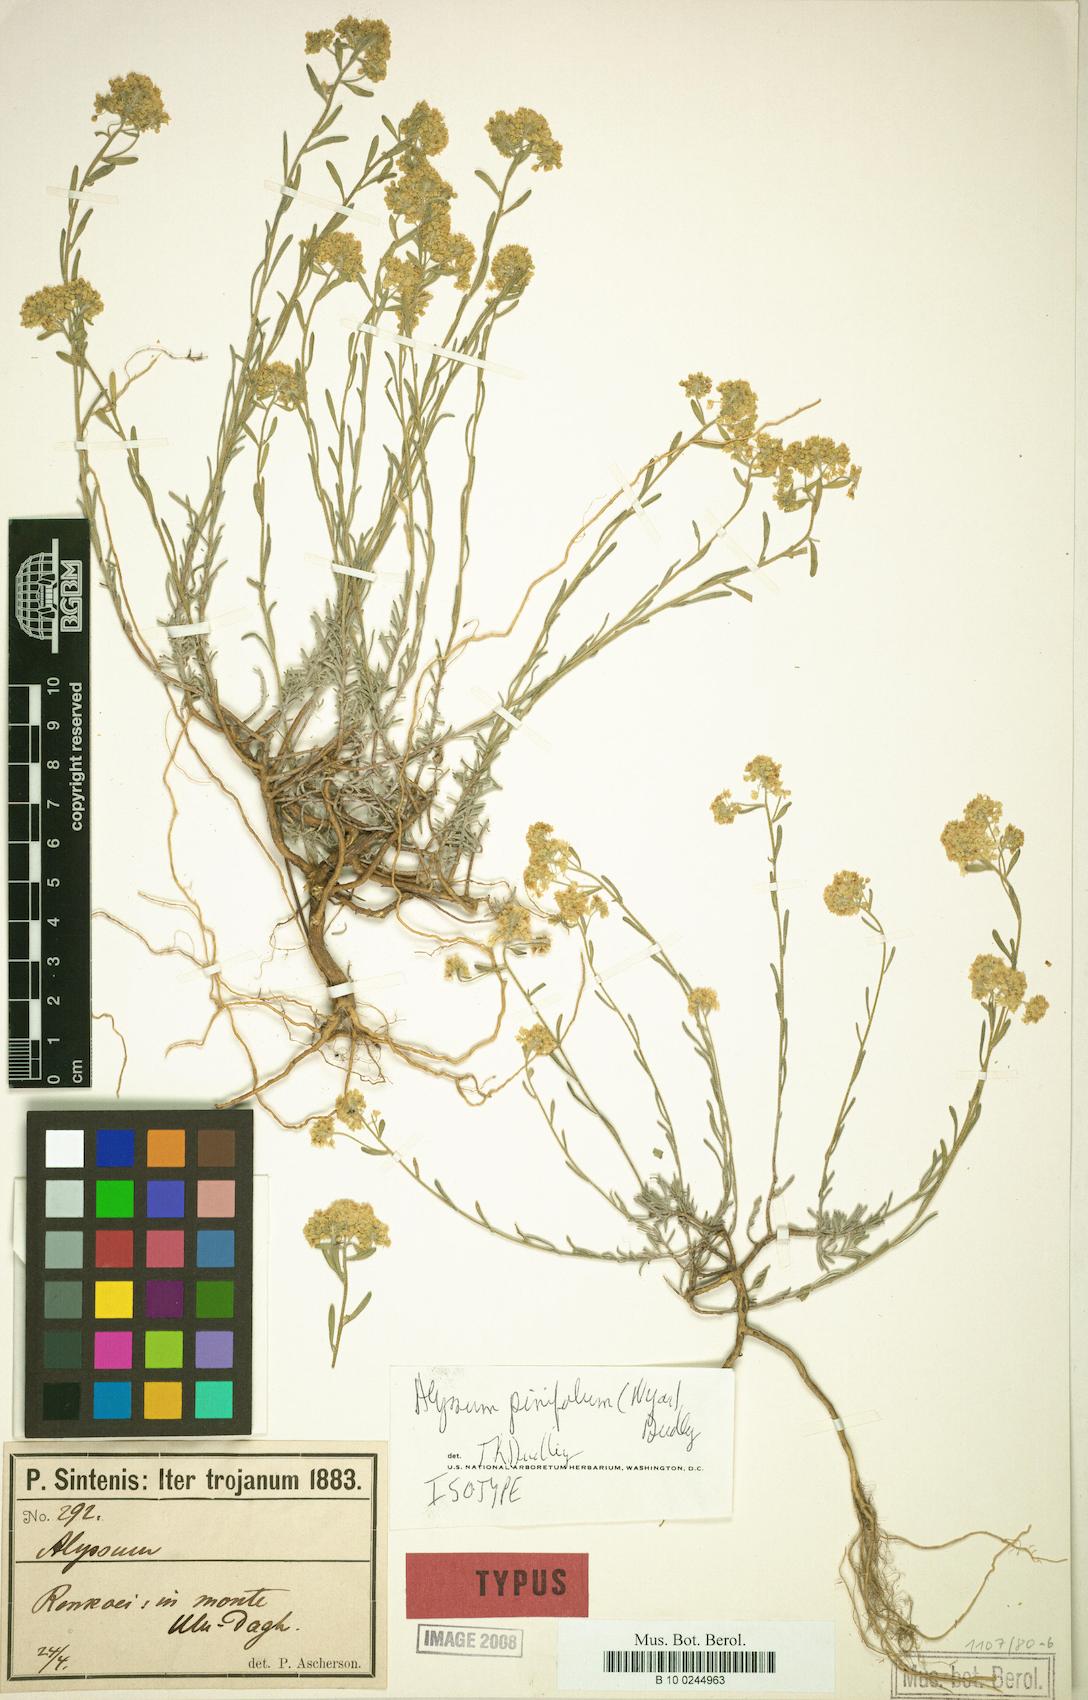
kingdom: Plantae
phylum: Tracheophyta
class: Magnoliopsida
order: Brassicales
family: Brassicaceae
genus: Odontarrhena
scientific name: Odontarrhena pinifolia
